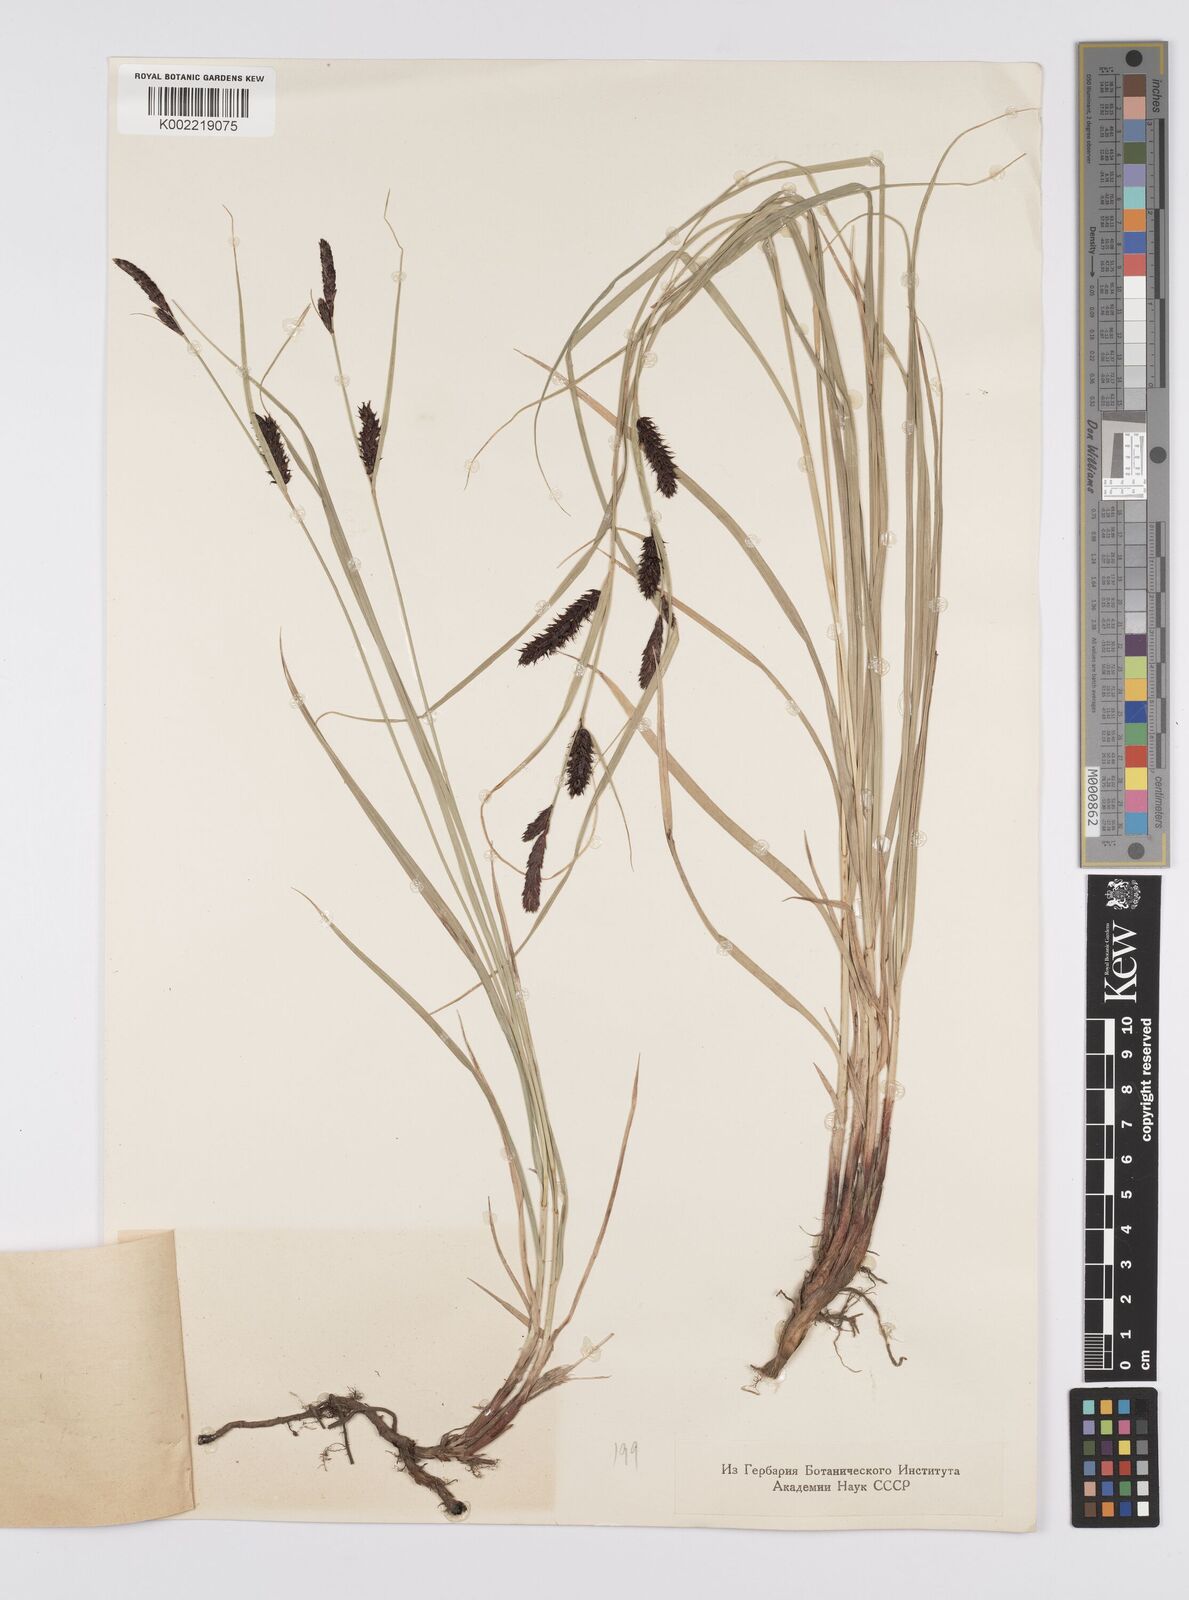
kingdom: Plantae
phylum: Tracheophyta
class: Liliopsida
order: Poales
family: Cyperaceae
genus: Carex
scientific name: Carex melanostachya
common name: Black-spiked sedge
